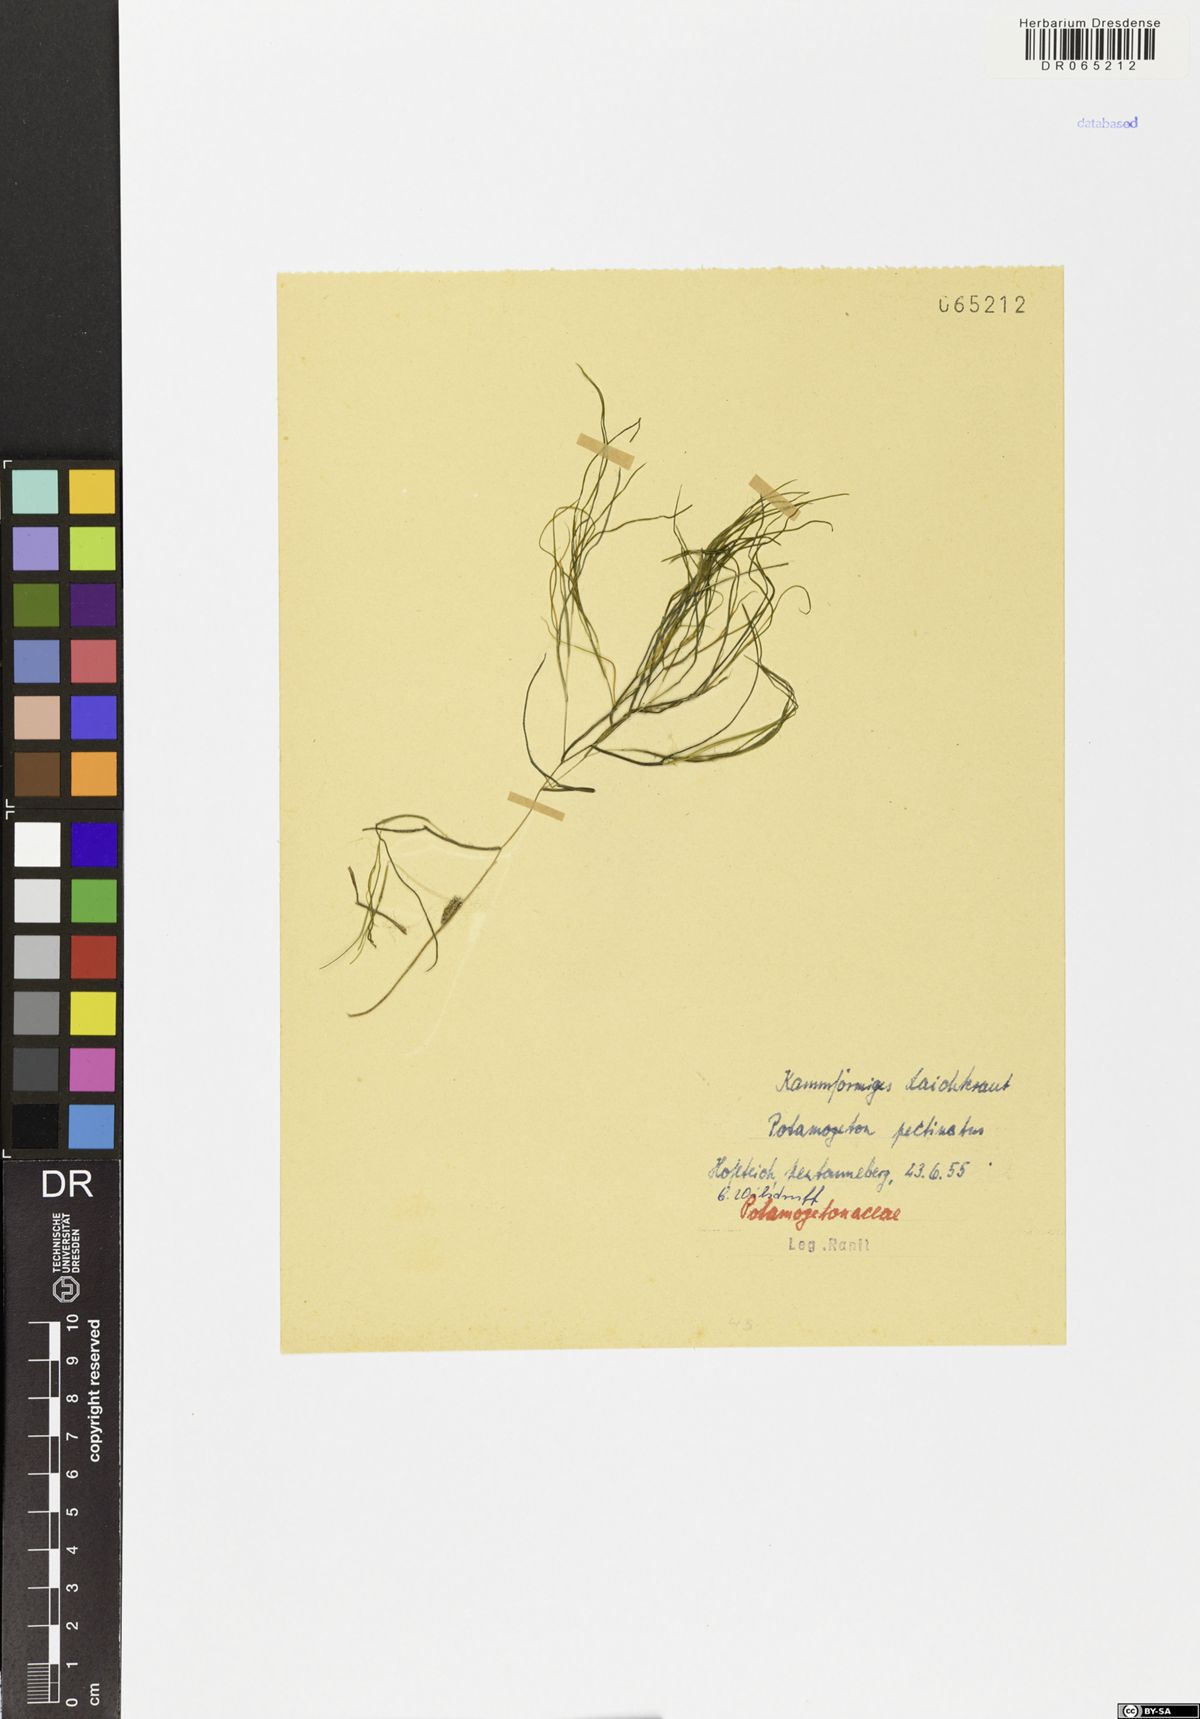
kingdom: Plantae
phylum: Tracheophyta
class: Liliopsida
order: Alismatales
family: Potamogetonaceae
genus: Stuckenia
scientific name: Stuckenia pectinata
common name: Sago pondweed
